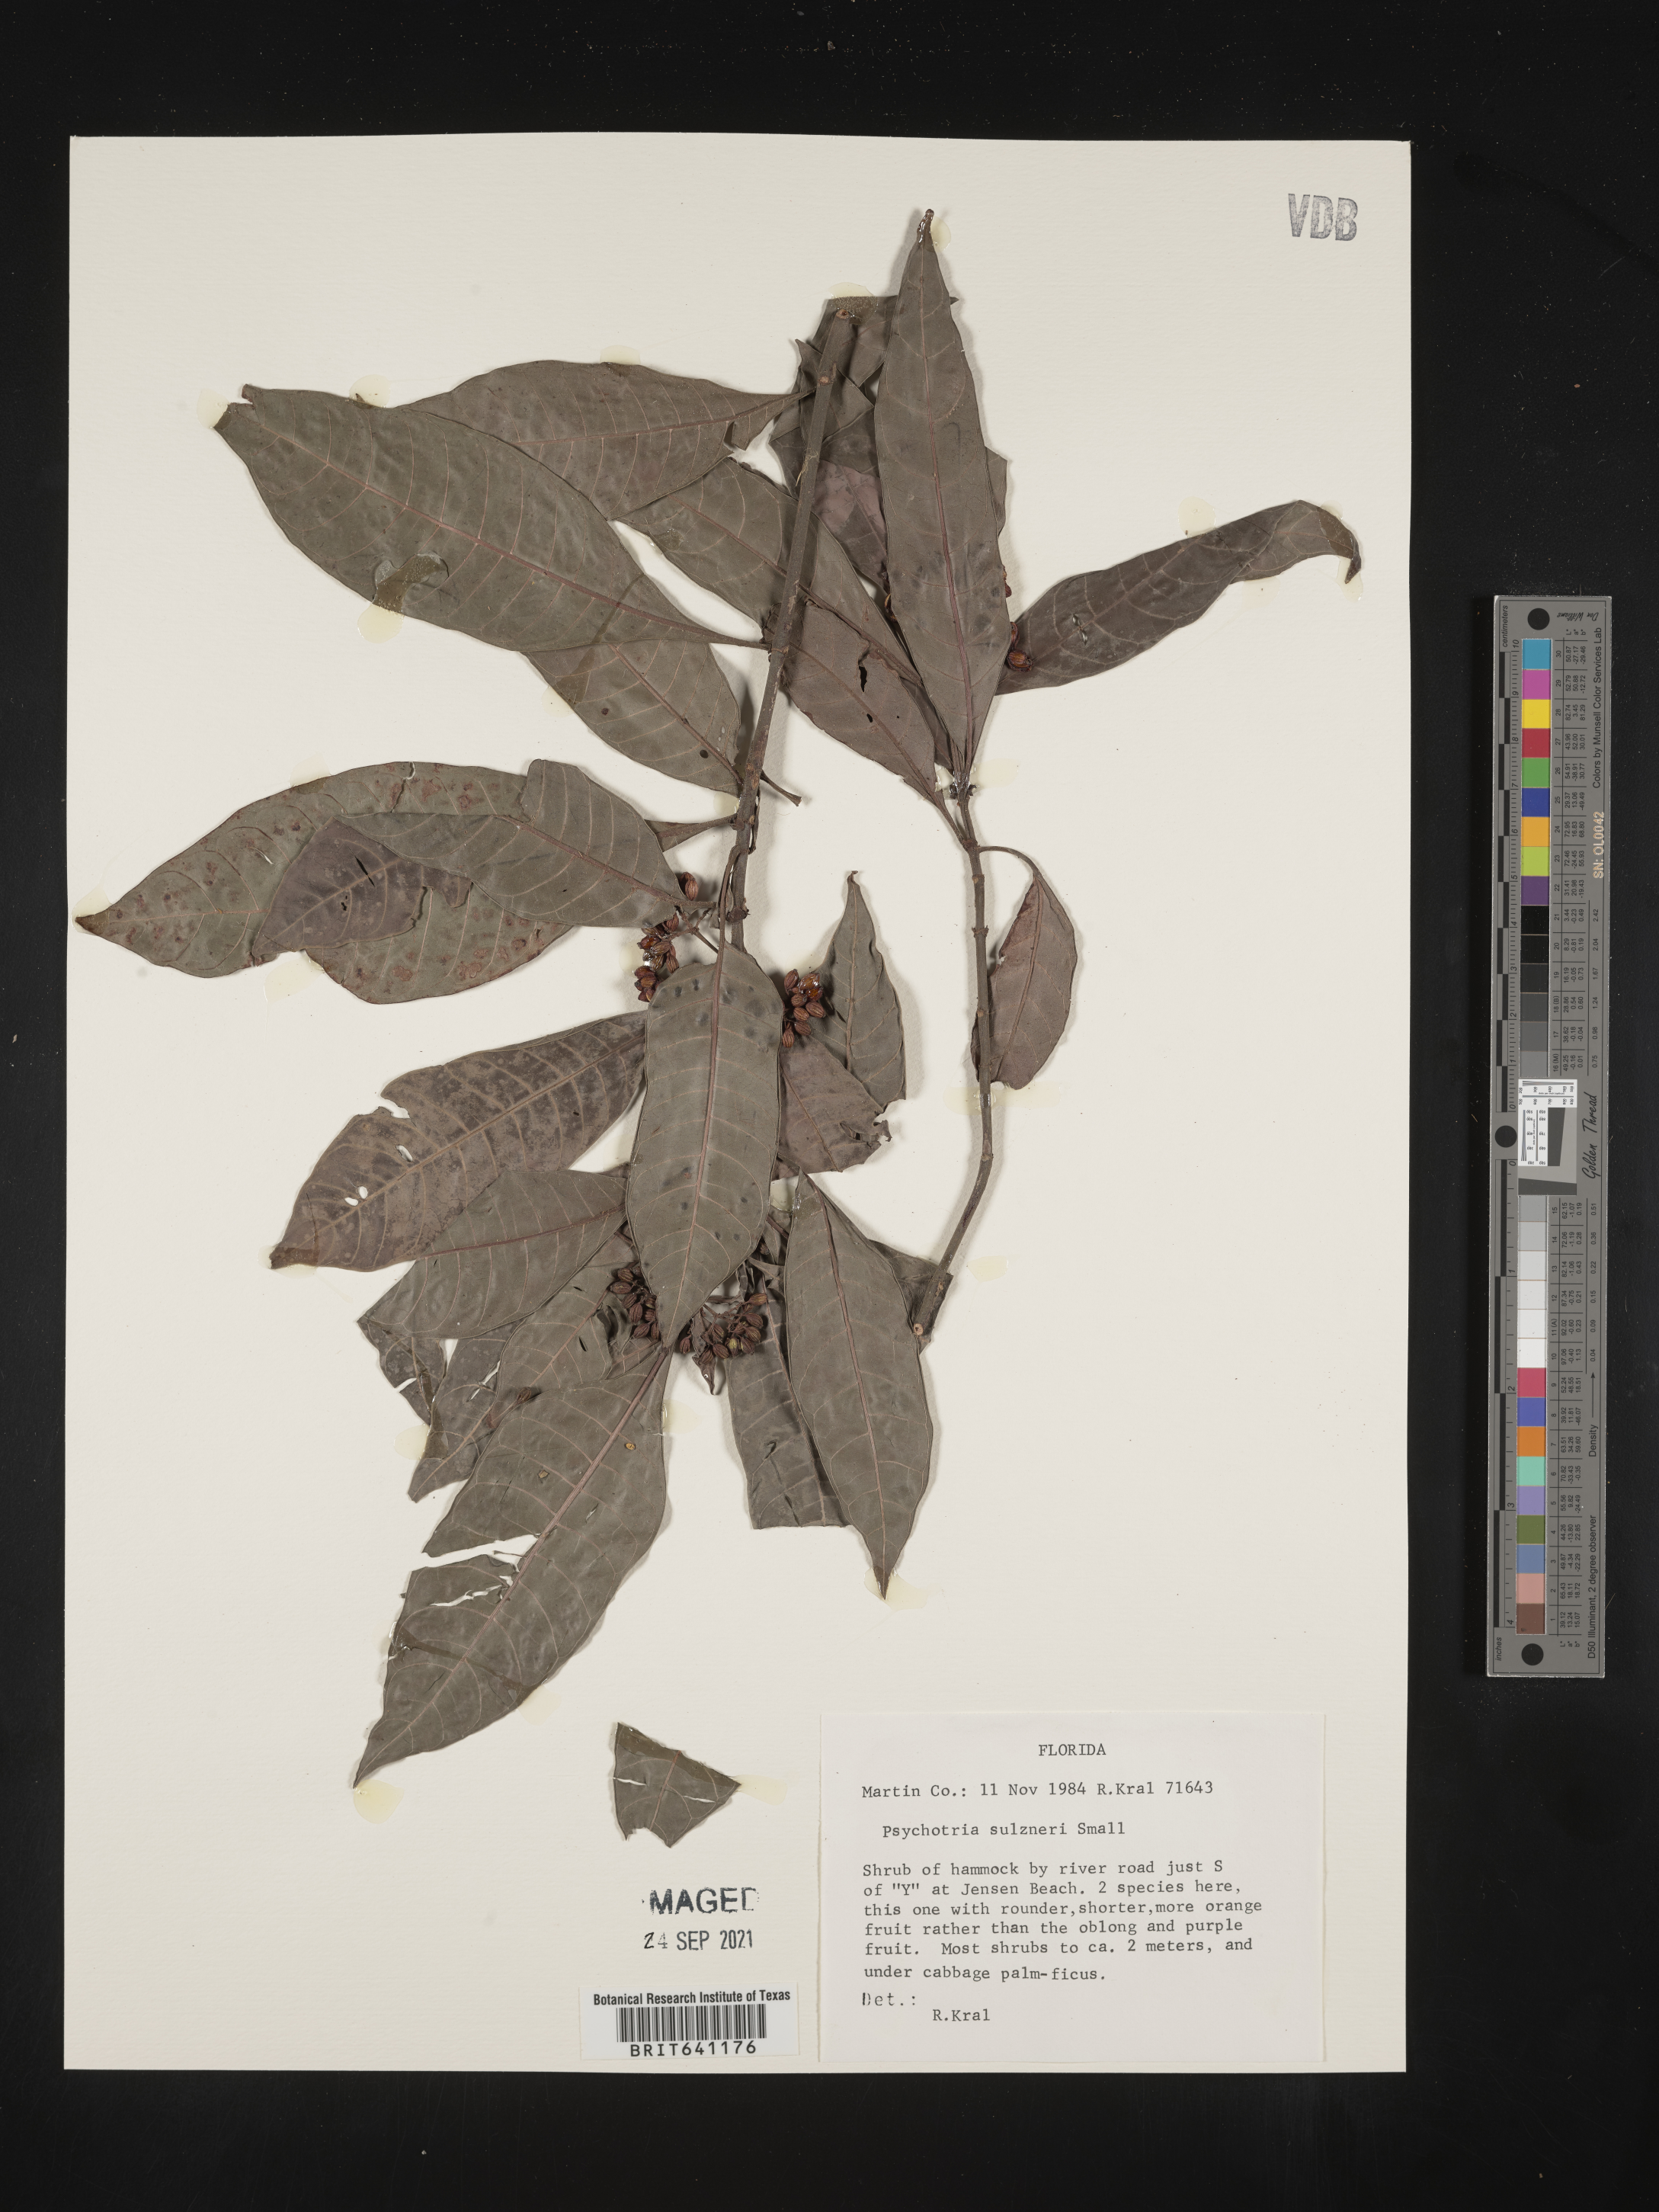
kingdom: Plantae
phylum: Tracheophyta
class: Magnoliopsida
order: Gentianales
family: Rubiaceae
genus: Psychotria
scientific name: Psychotria tenuifolia
